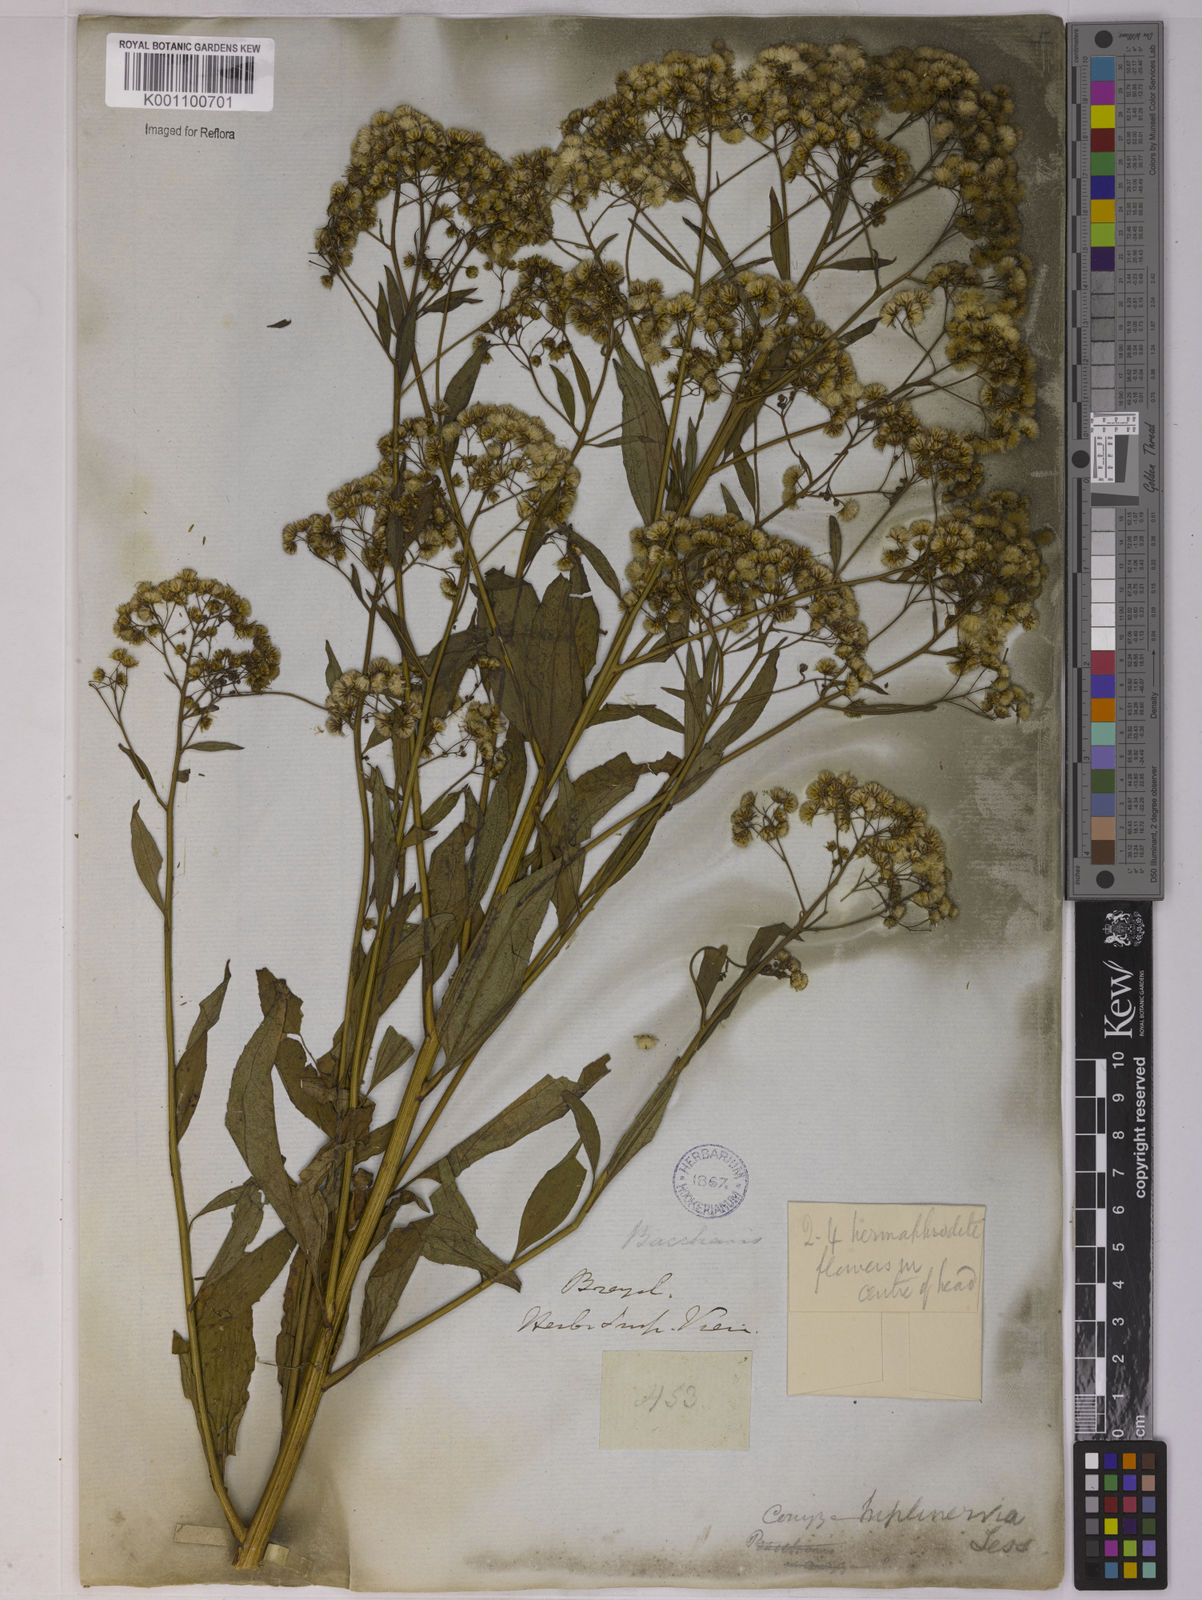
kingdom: Plantae
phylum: Tracheophyta
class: Magnoliopsida
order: Asterales
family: Asteraceae
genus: Archibaccharis
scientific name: Archibaccharis vulneraria
